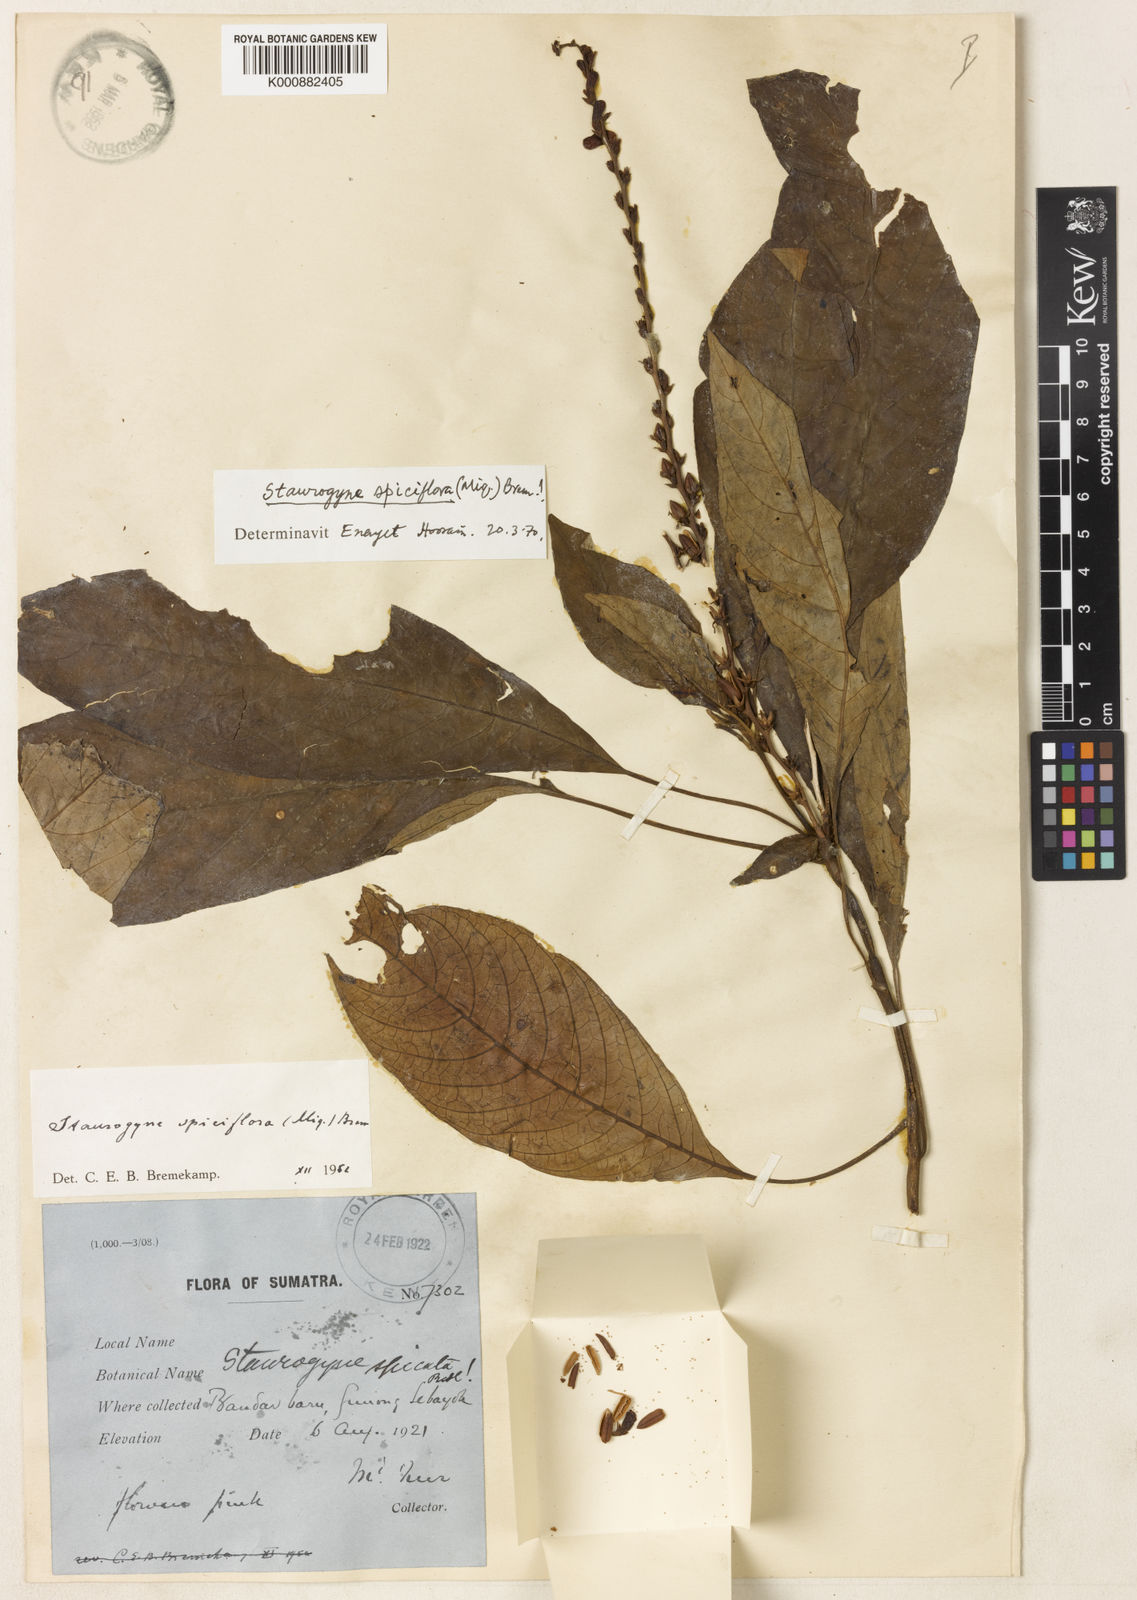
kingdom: Plantae
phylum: Tracheophyta
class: Magnoliopsida
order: Lamiales
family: Acanthaceae
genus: Staurogyne
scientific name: Staurogyne spiciflora
